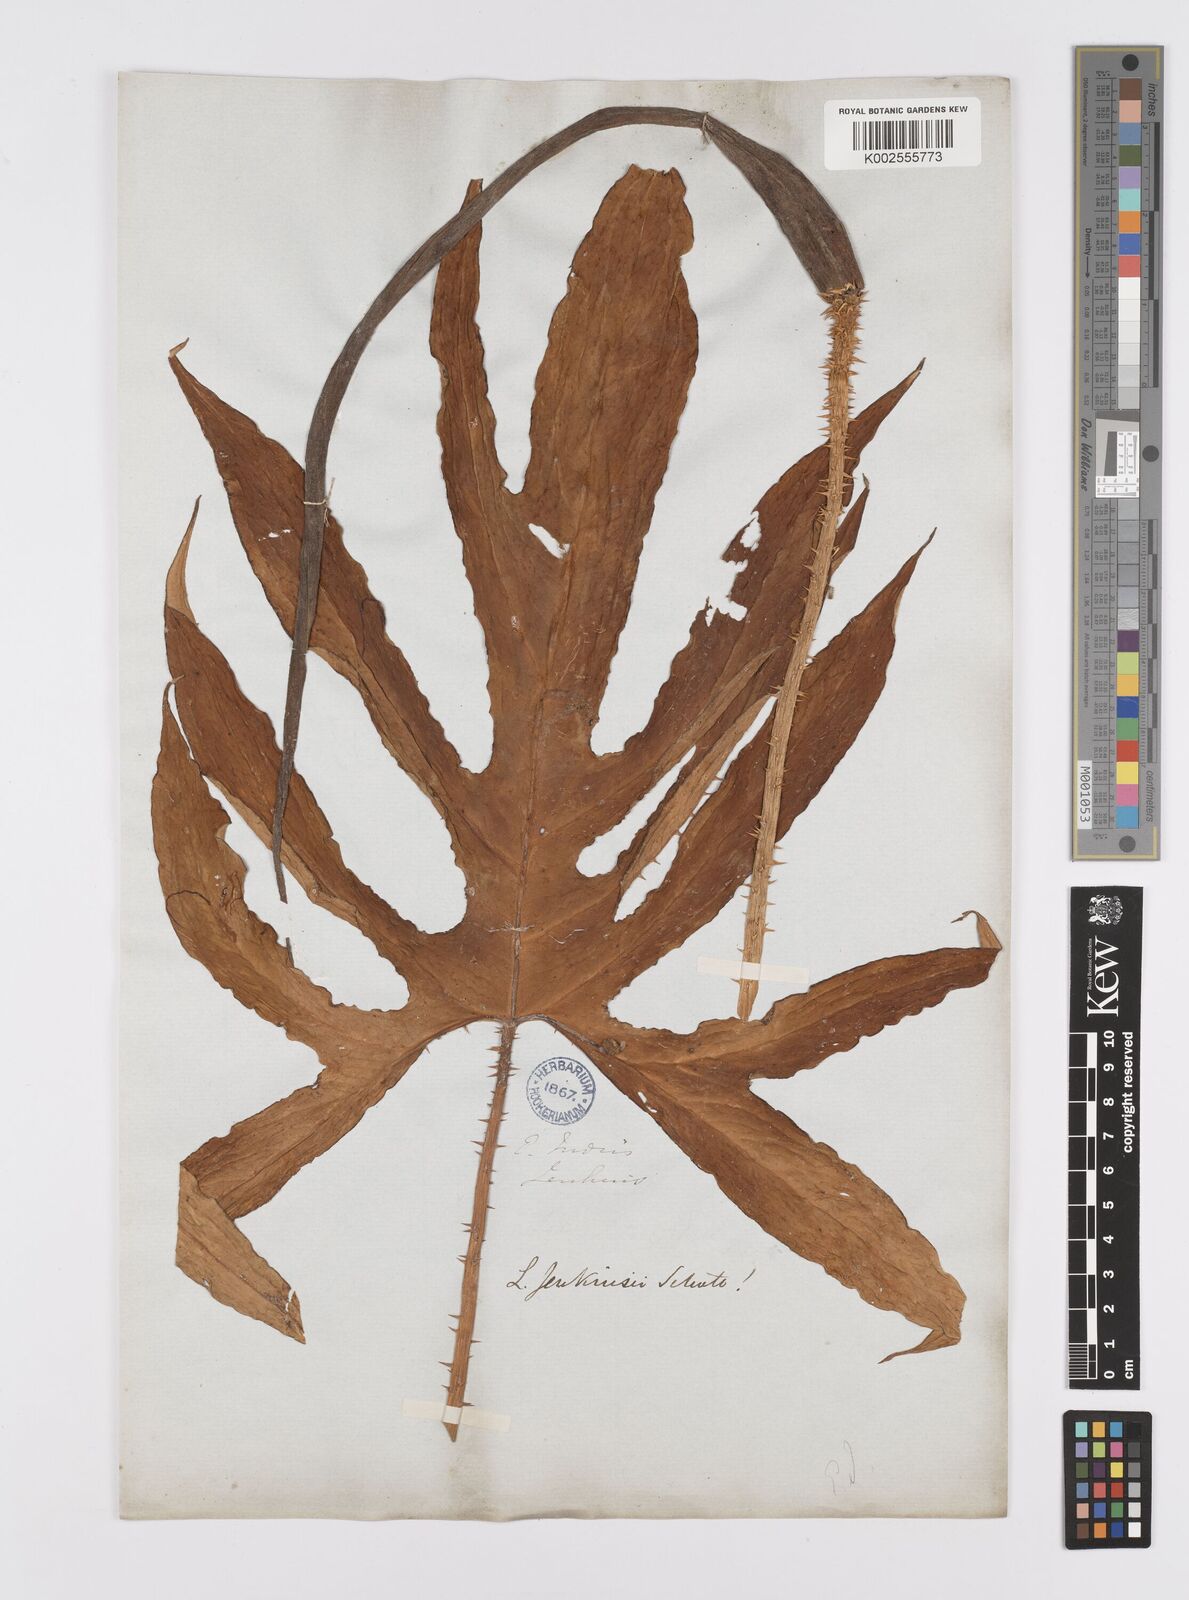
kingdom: Plantae
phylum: Tracheophyta
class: Liliopsida
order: Alismatales
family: Araceae
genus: Lasia
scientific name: Lasia spinosa
